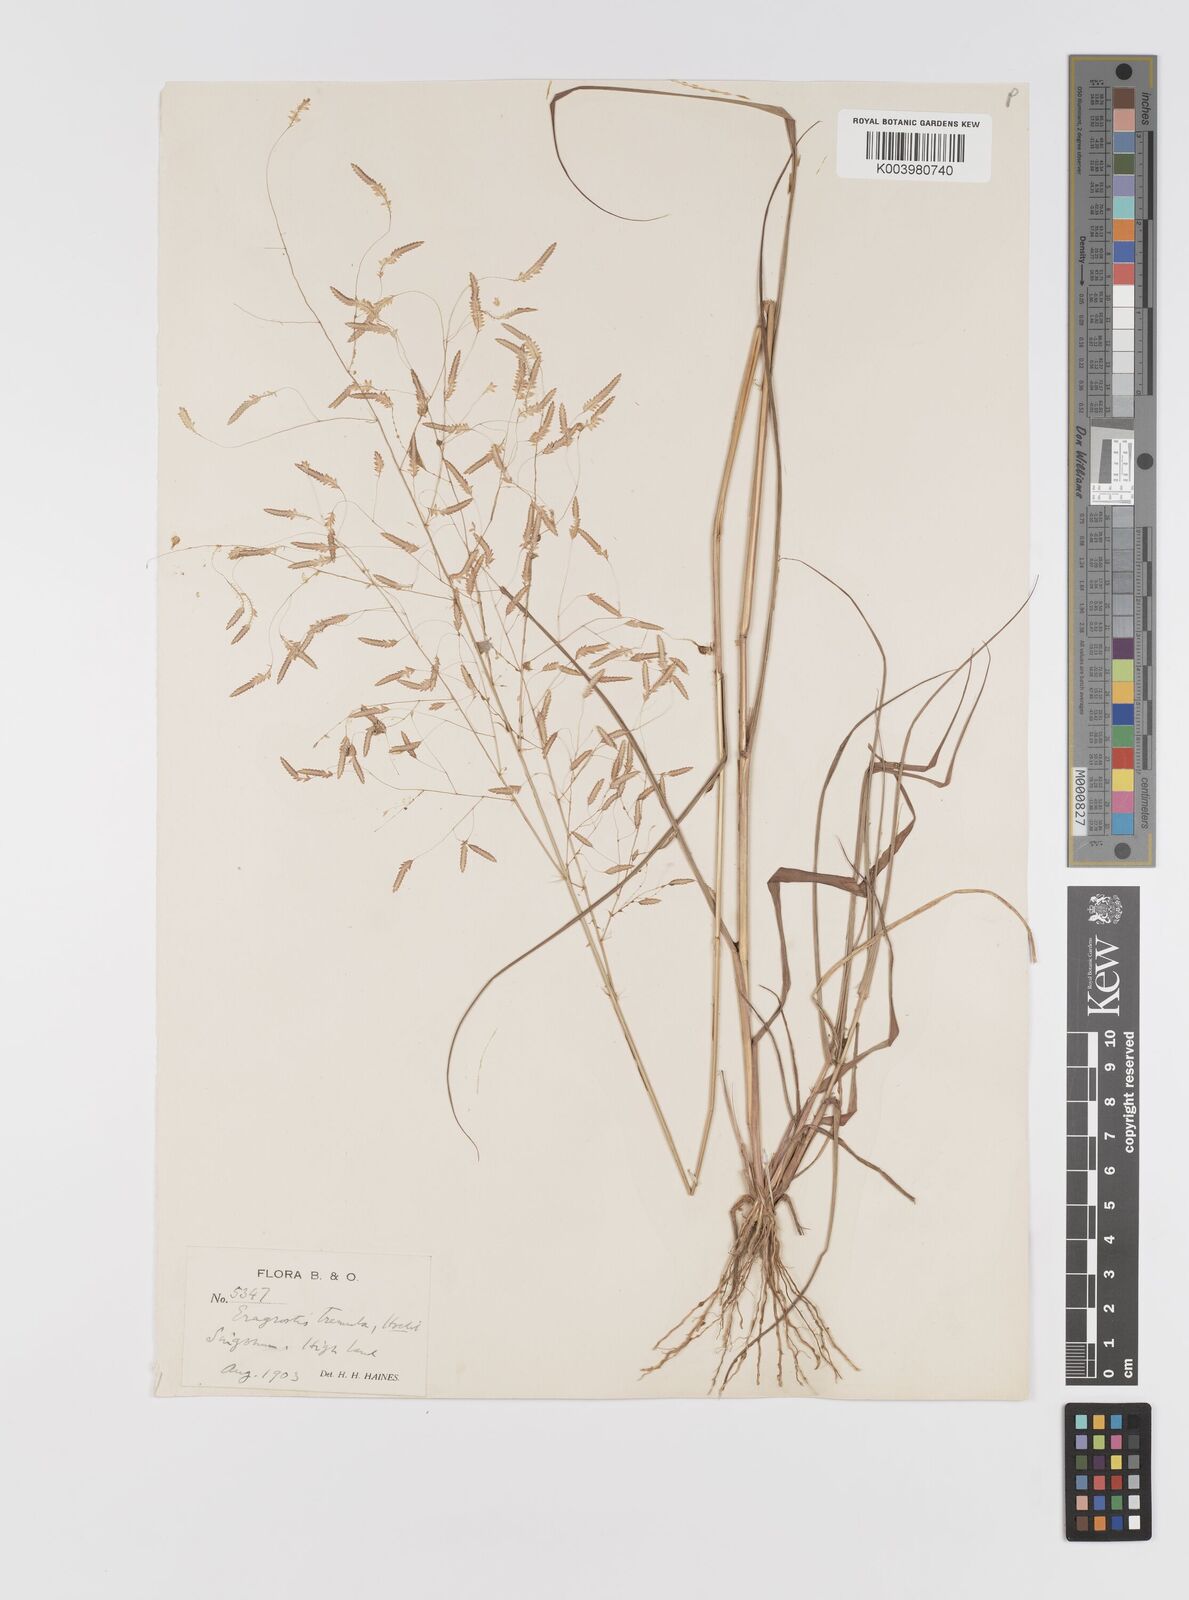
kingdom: Plantae
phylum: Tracheophyta
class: Liliopsida
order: Poales
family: Poaceae
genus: Eragrostis
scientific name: Eragrostis tremula
